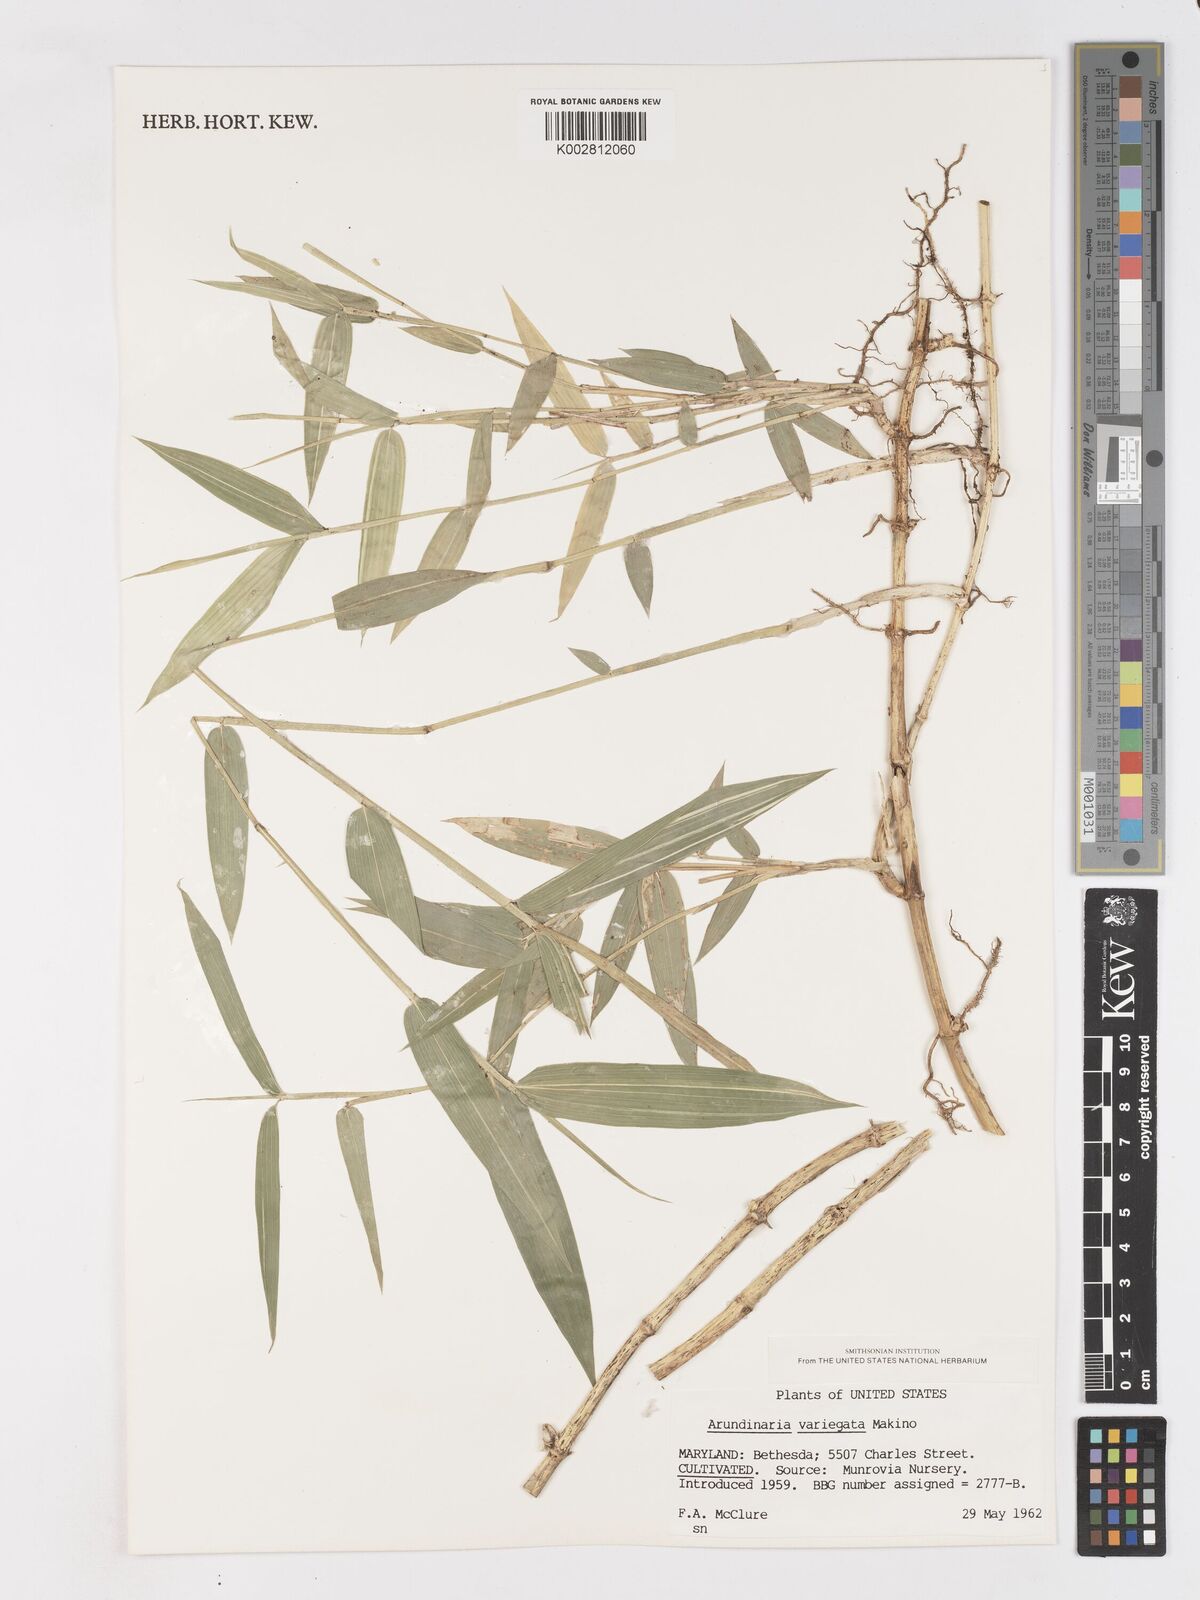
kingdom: Plantae
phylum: Tracheophyta
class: Liliopsida
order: Poales
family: Poaceae
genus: Pleioblastus
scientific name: Pleioblastus argenteostriatus
